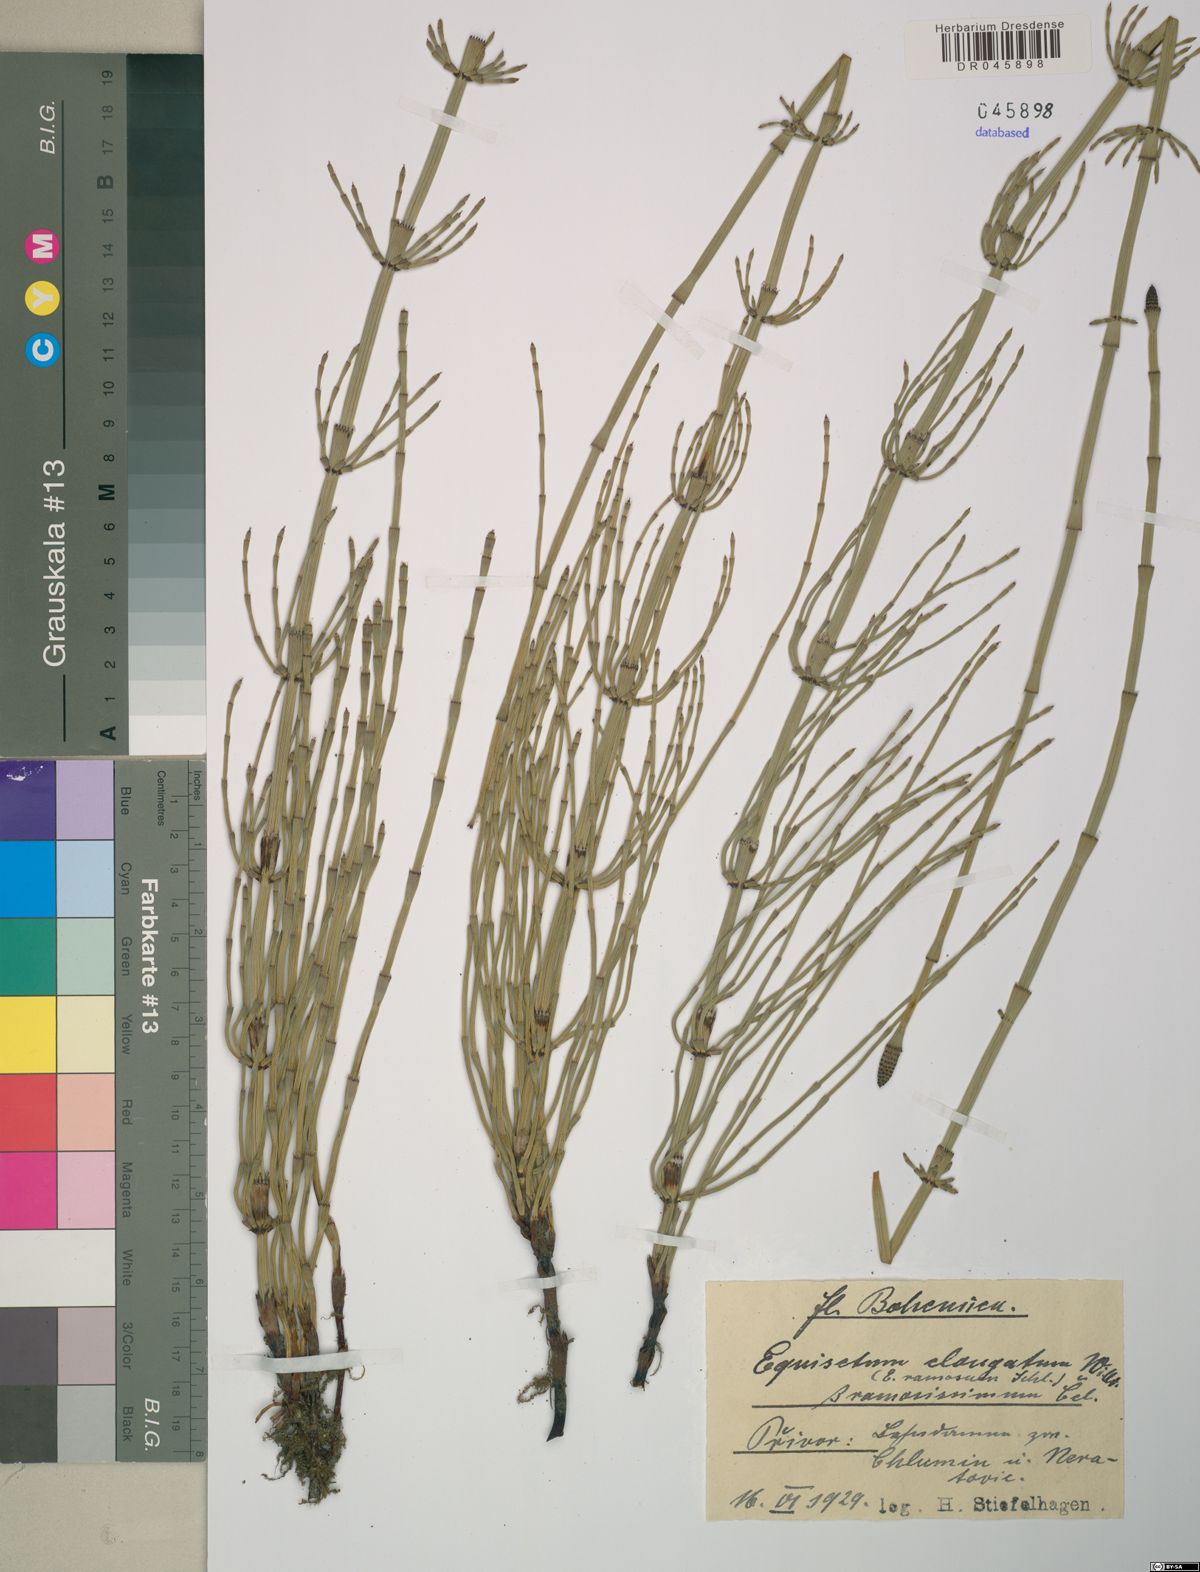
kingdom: Plantae
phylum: Tracheophyta
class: Polypodiopsida
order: Equisetales
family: Equisetaceae
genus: Equisetum
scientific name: Equisetum ramosissimum
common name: Branched horsetail
